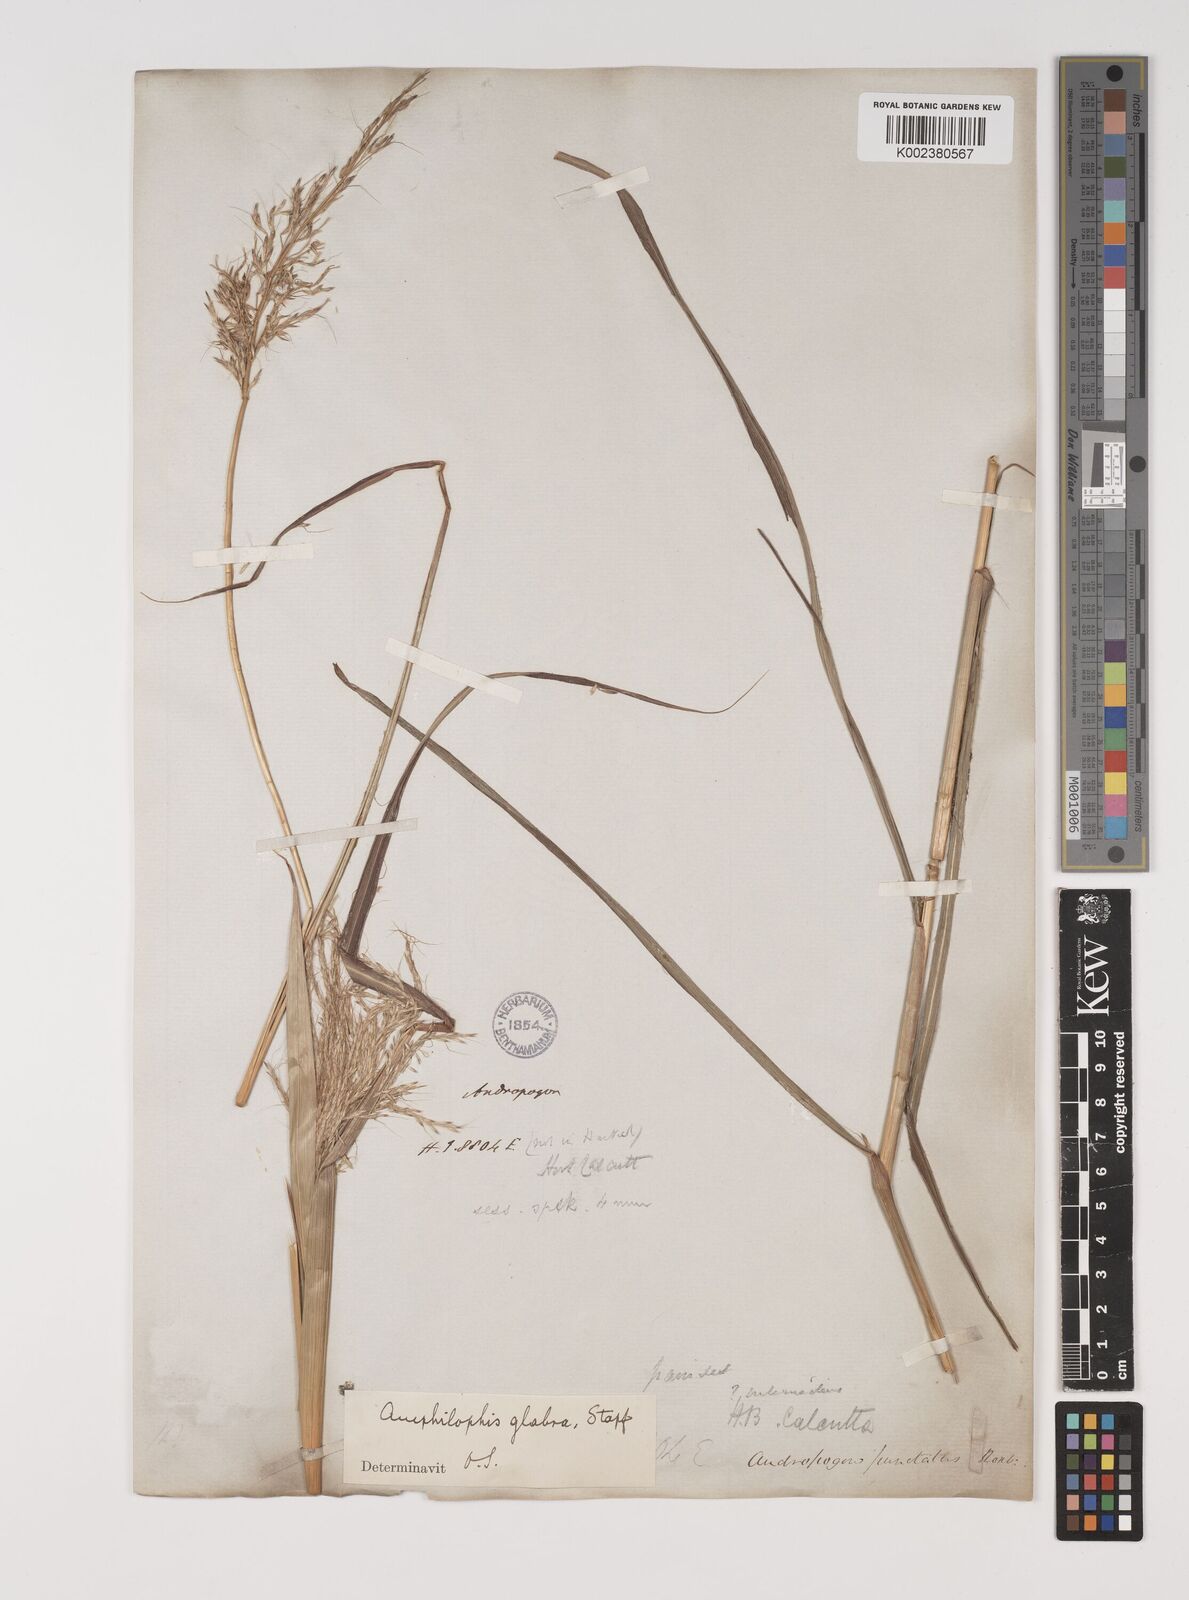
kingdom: Plantae
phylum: Tracheophyta
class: Liliopsida
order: Poales
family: Poaceae
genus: Bothriochloa
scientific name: Bothriochloa bladhii
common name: Caucasian bluestem
